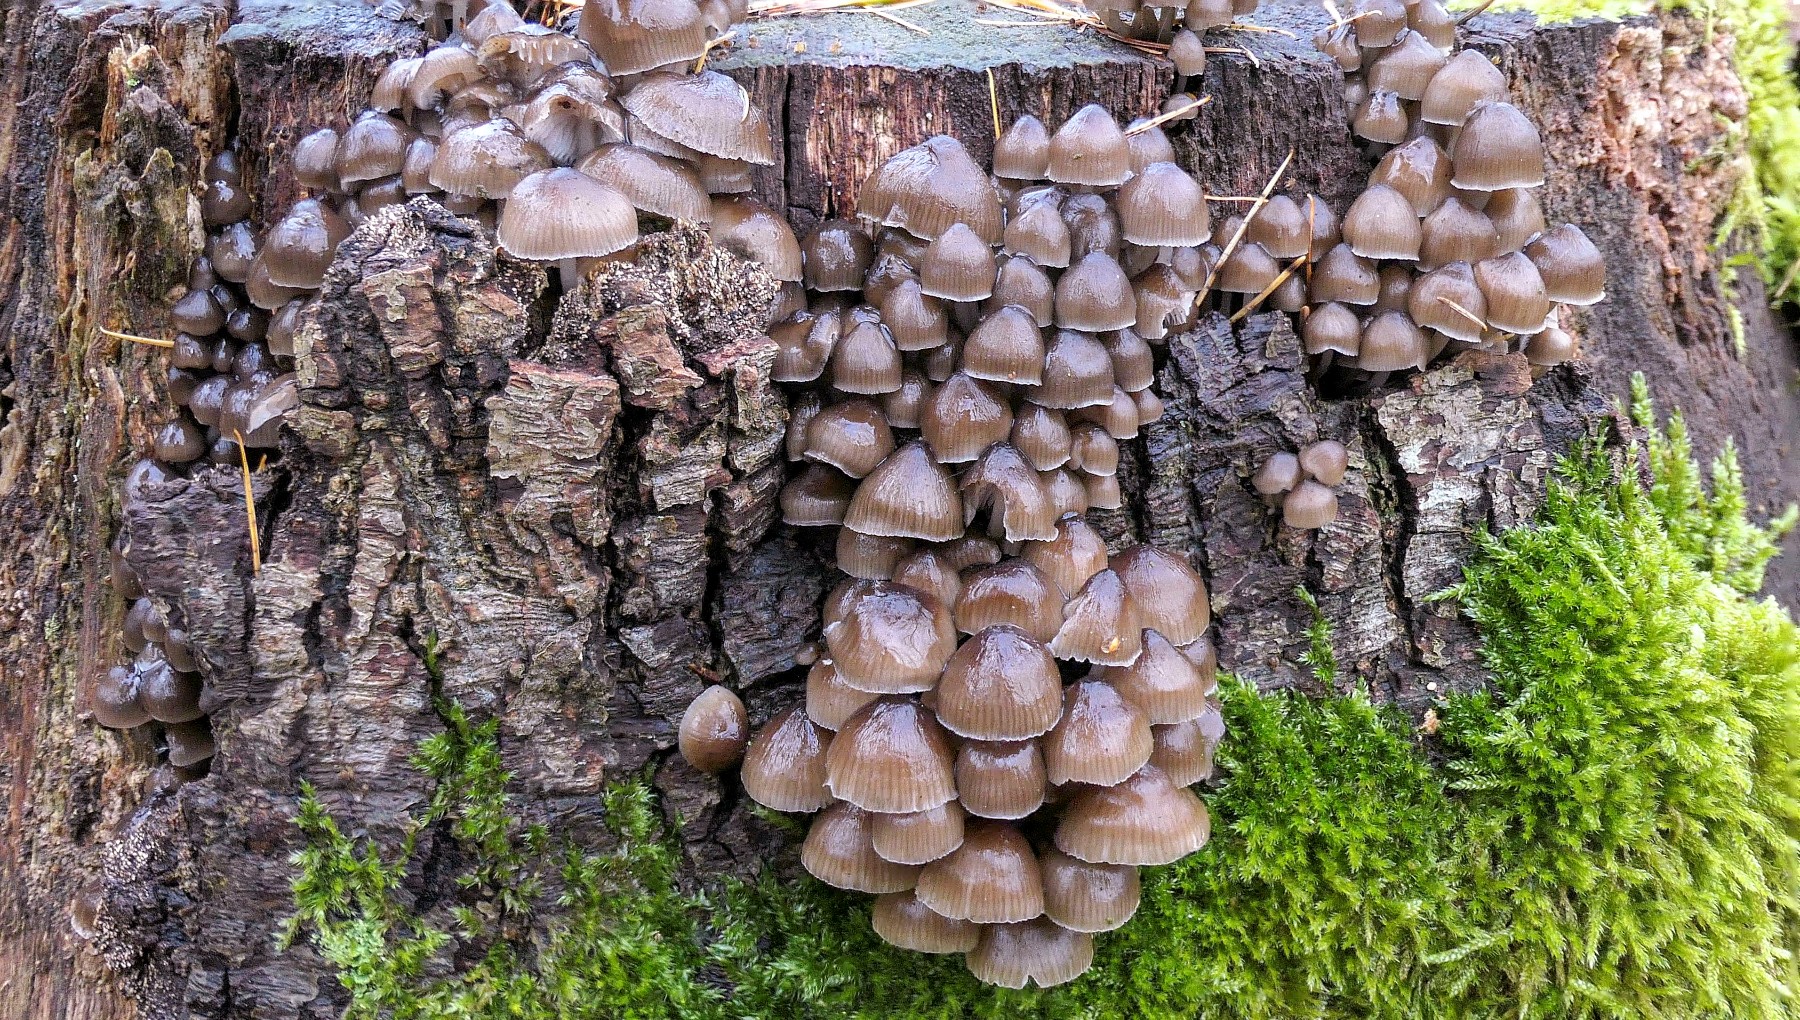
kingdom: Fungi
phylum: Basidiomycota
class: Agaricomycetes
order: Agaricales
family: Mycenaceae
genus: Mycena
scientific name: Mycena tintinnabulum
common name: vinter-huesvamp
